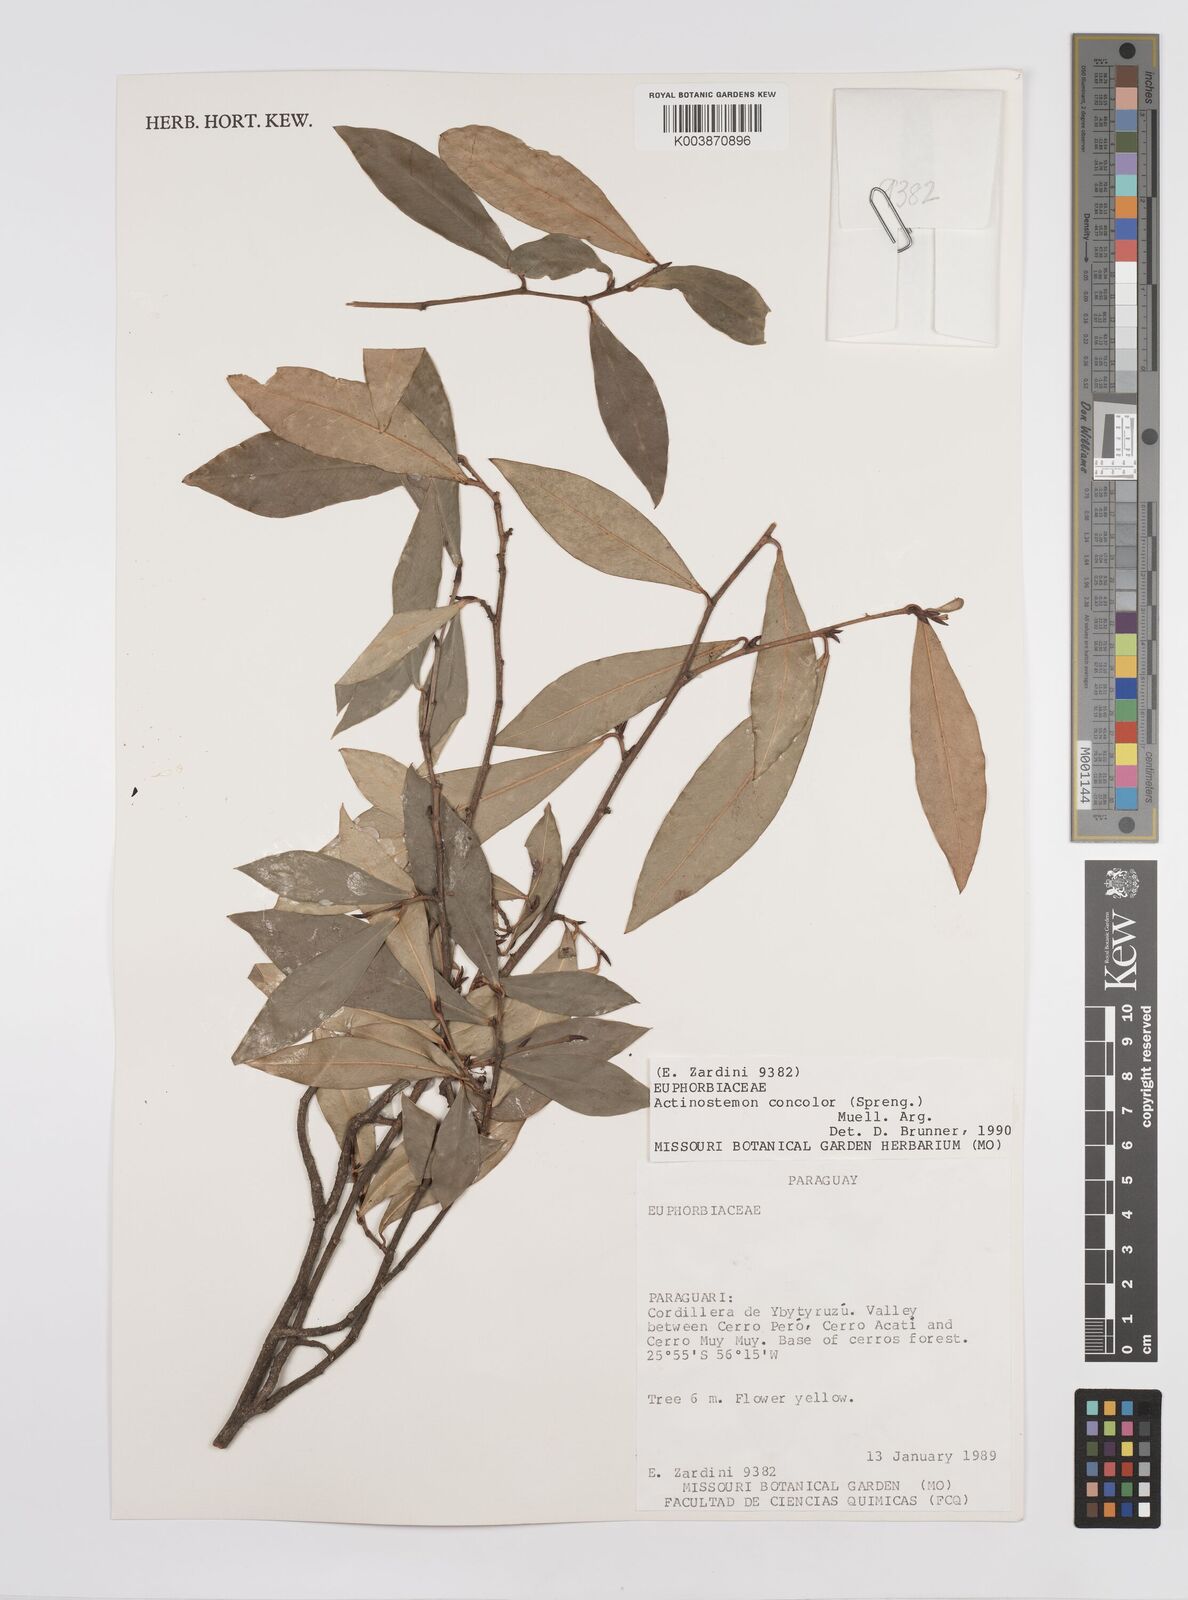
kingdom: Plantae
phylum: Tracheophyta
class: Magnoliopsida
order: Malpighiales
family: Euphorbiaceae
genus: Actinostemon
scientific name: Actinostemon concolor
